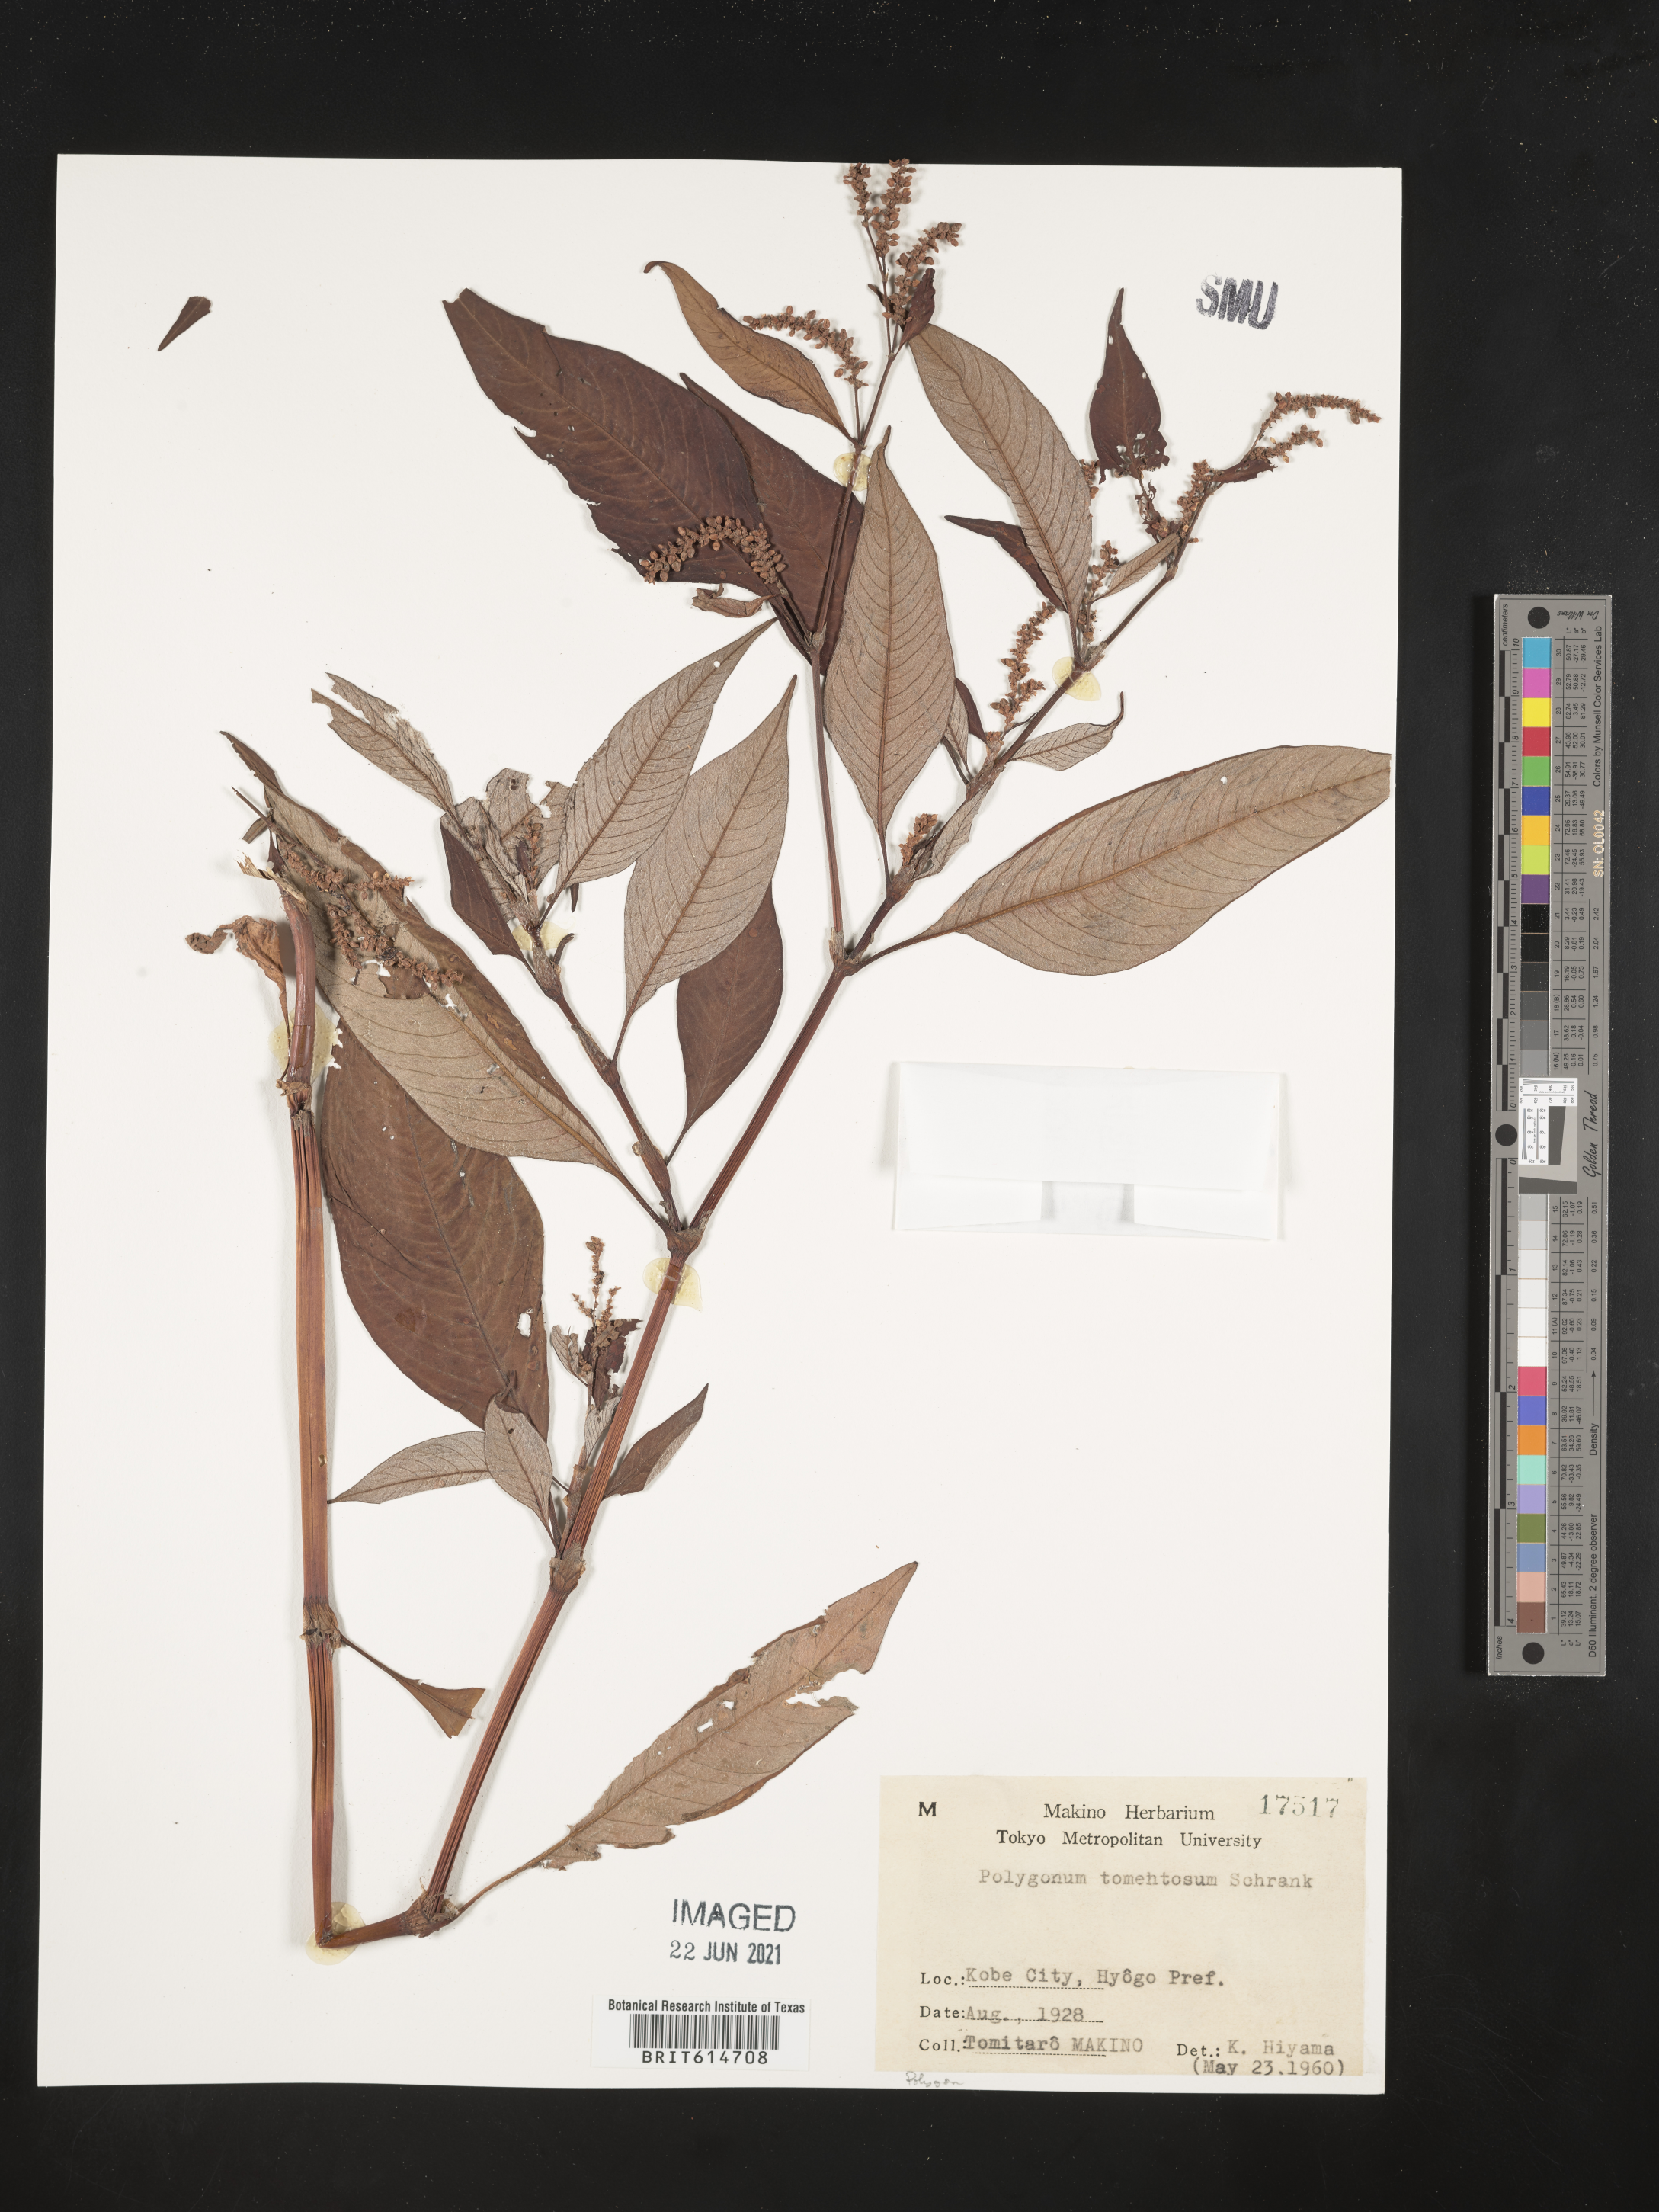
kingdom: Plantae
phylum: Tracheophyta
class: Magnoliopsida
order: Caryophyllales
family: Polygonaceae
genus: Persicaria
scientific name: Persicaria lapathifolia
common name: Curlytop knotweed
